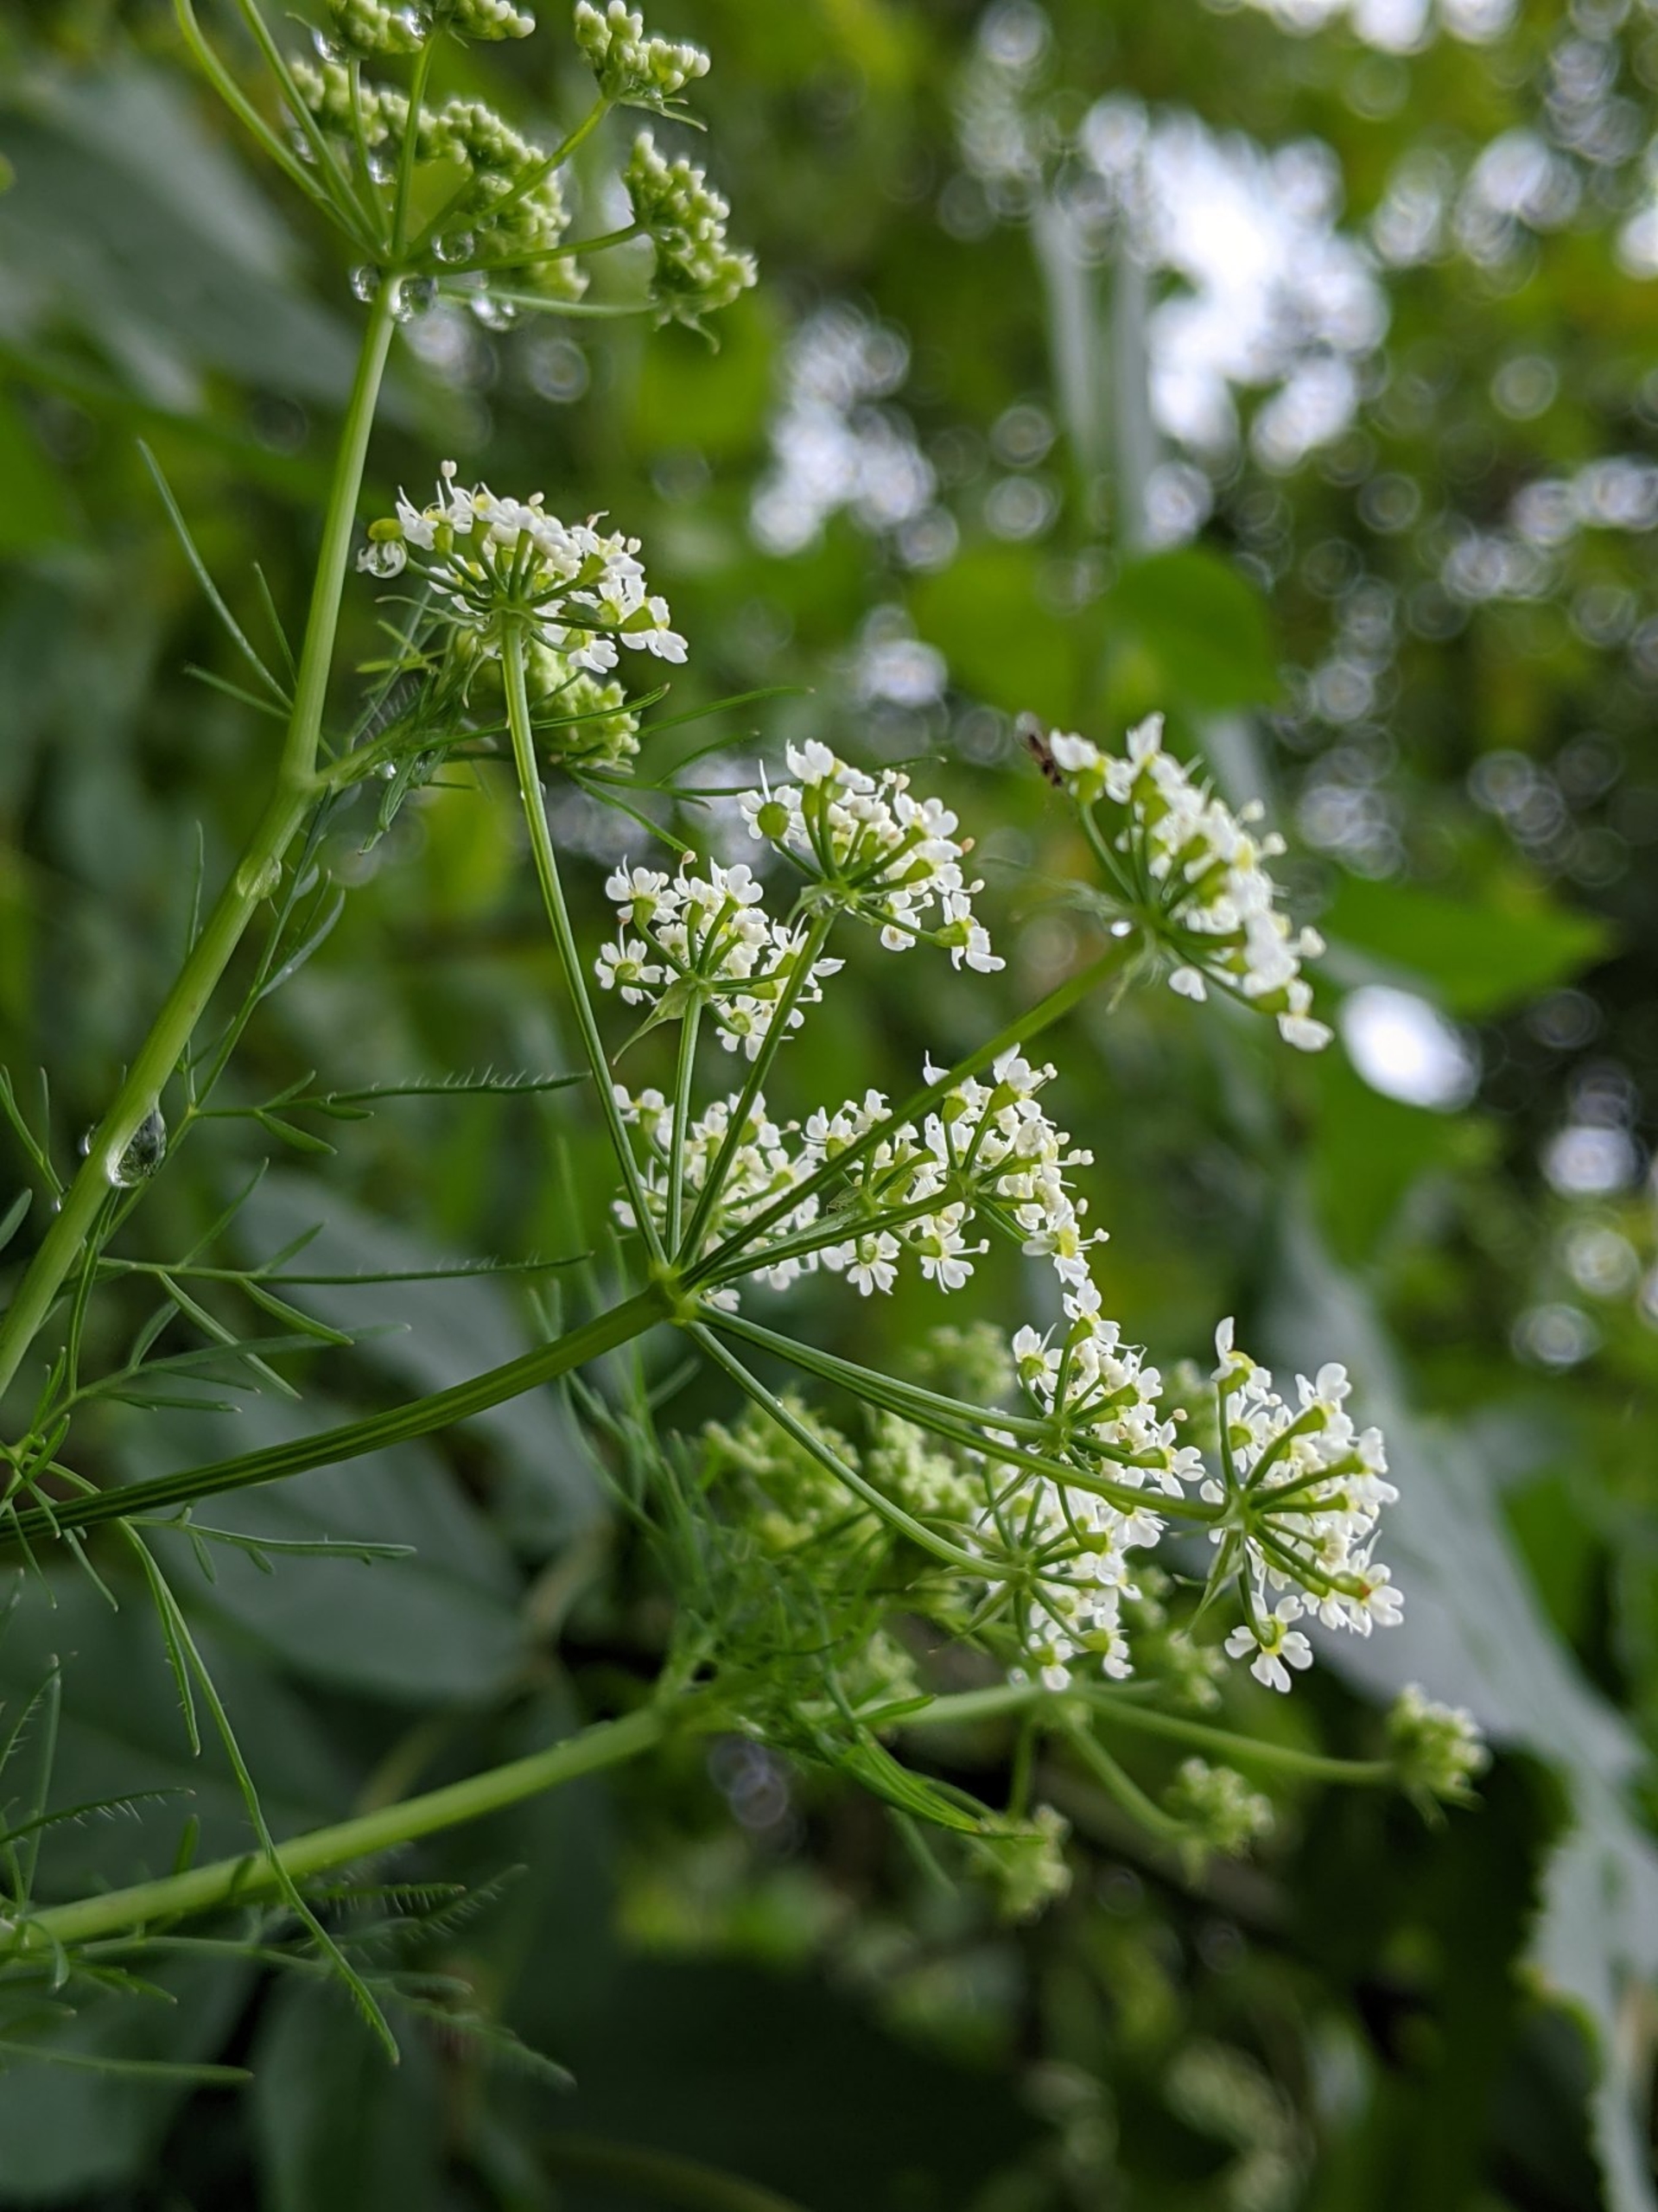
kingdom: Plantae
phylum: Tracheophyta
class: Magnoliopsida
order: Apiales
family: Apiaceae
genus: Chaerophyllum
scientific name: Chaerophyllum bulbosum
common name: Knoldet hulsvøb
